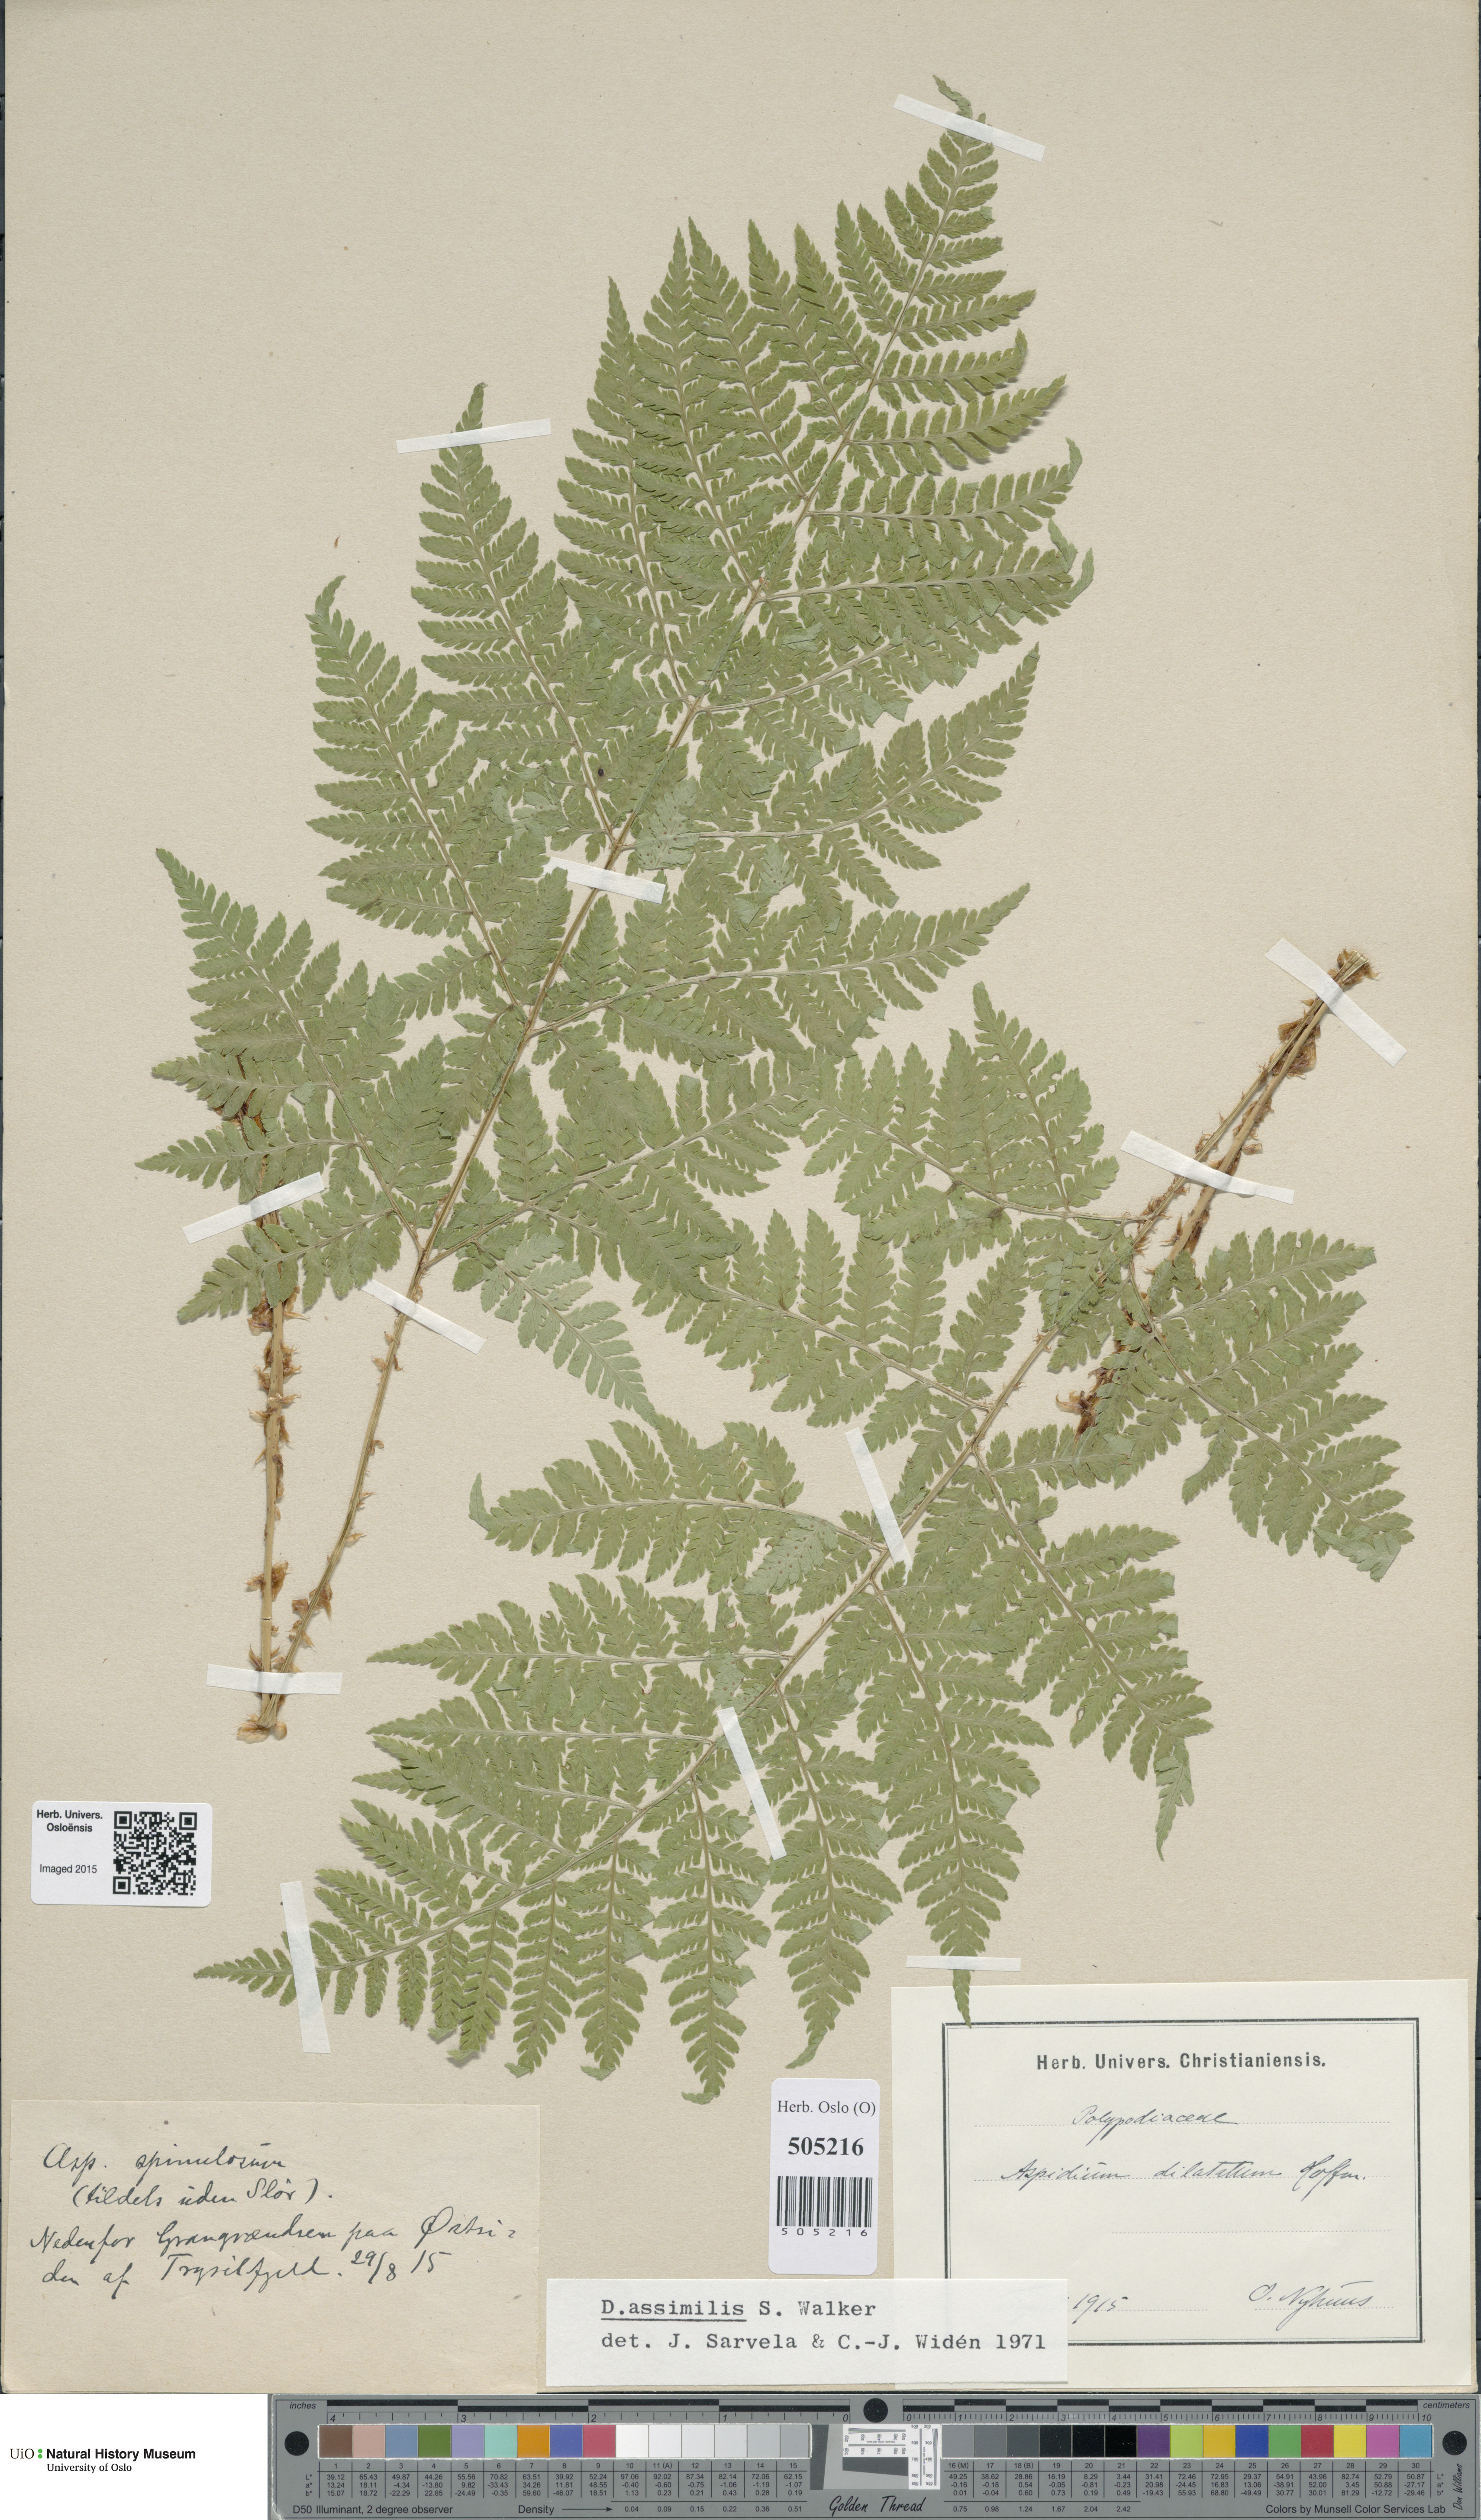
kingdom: Plantae
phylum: Tracheophyta
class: Polypodiopsida
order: Polypodiales
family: Dryopteridaceae
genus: Dryopteris
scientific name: Dryopteris expansa
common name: Northern buckler fern
